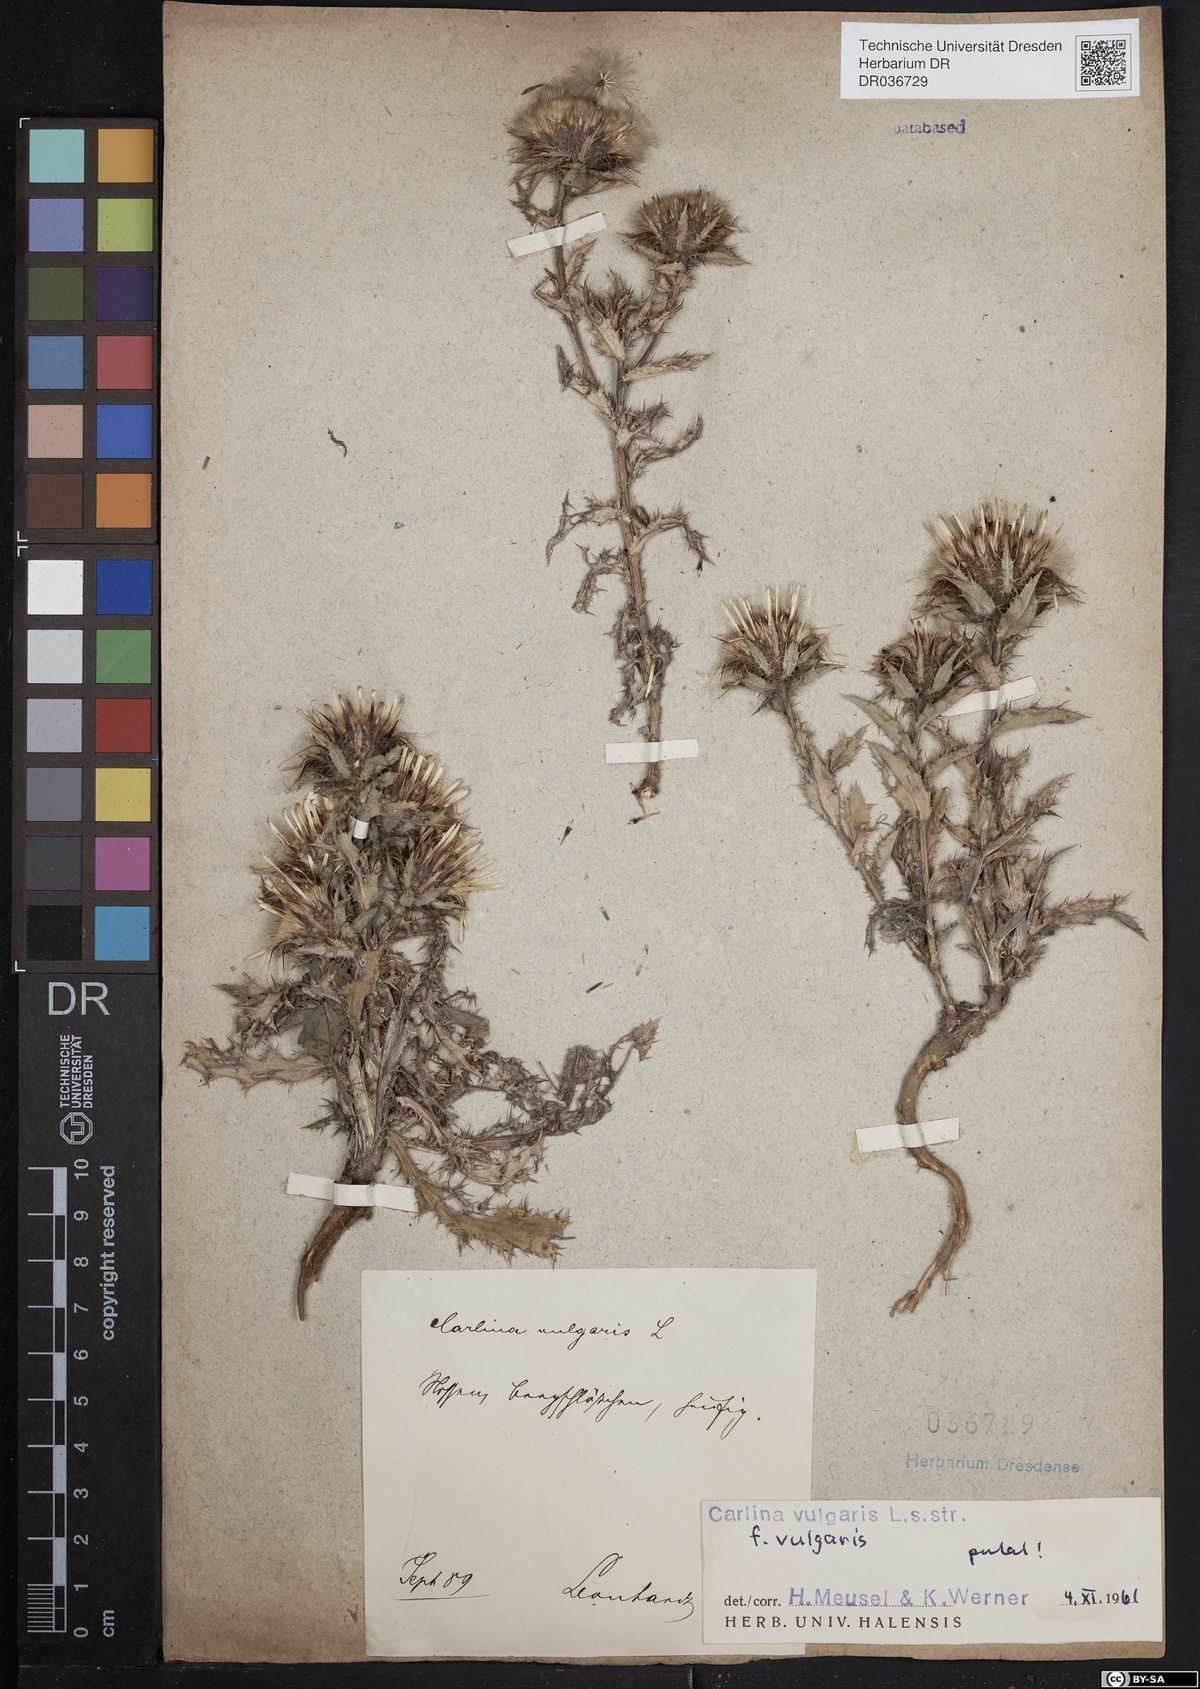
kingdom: Plantae
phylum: Tracheophyta
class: Magnoliopsida
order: Asterales
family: Asteraceae
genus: Carlina
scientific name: Carlina vulgaris
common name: Carline thistle
